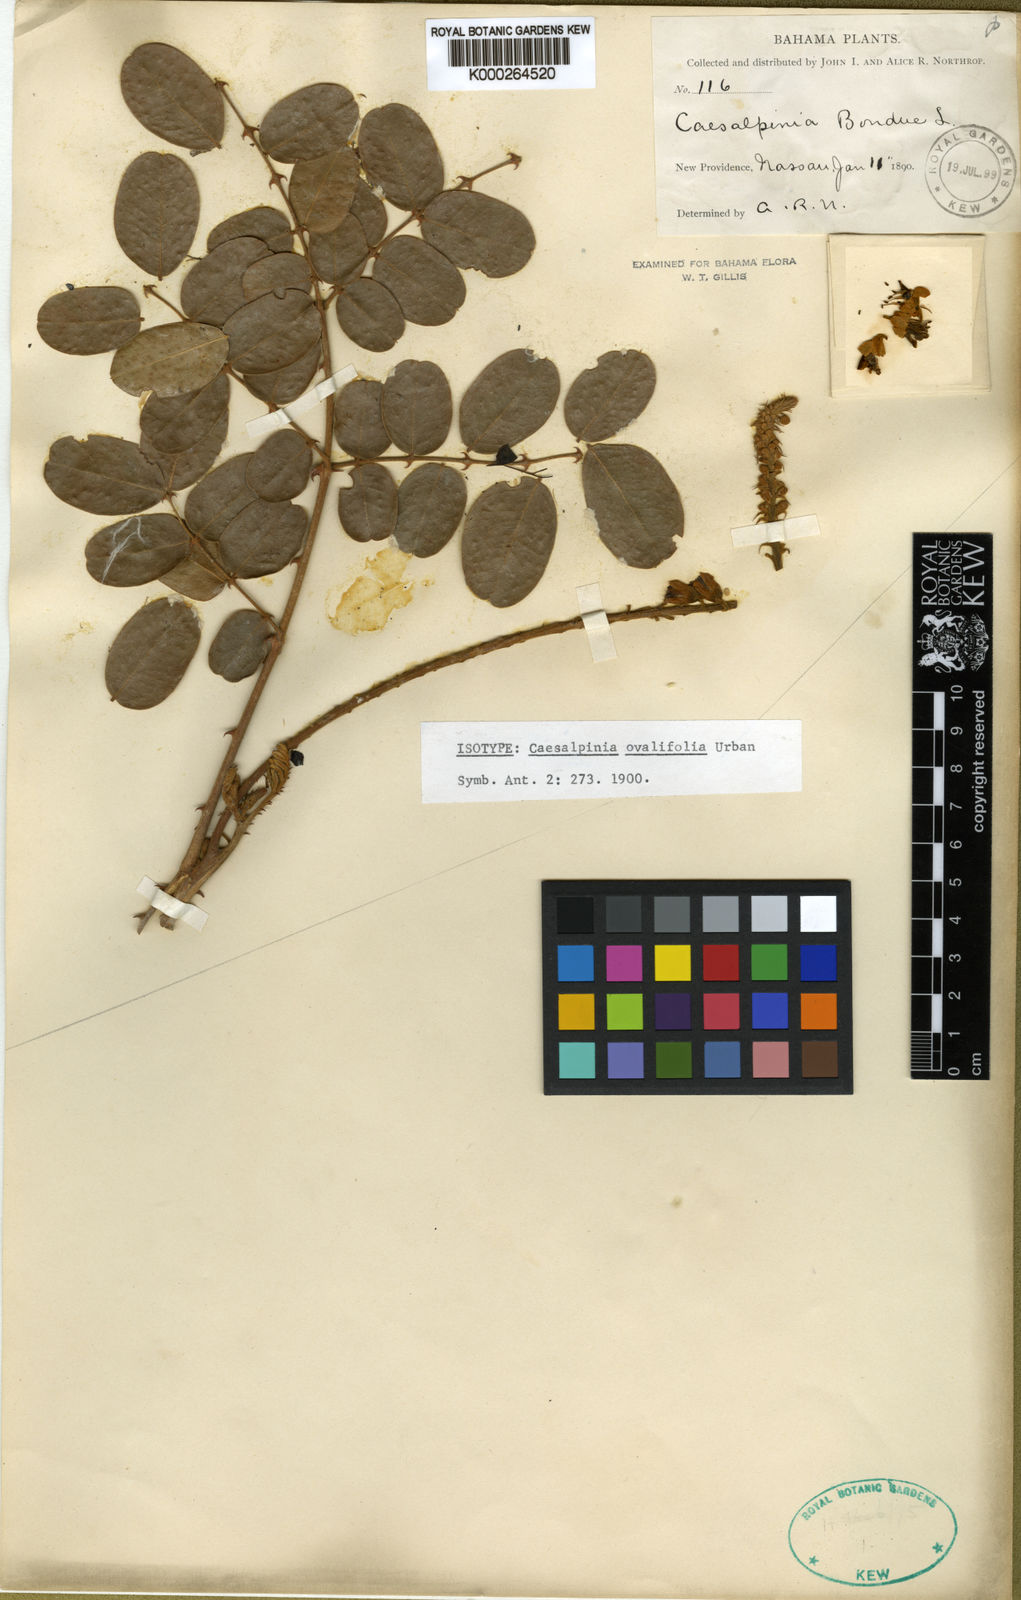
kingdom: Plantae
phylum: Tracheophyta
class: Magnoliopsida
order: Fabales
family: Fabaceae
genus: Guilandina
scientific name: Guilandina ciliata
